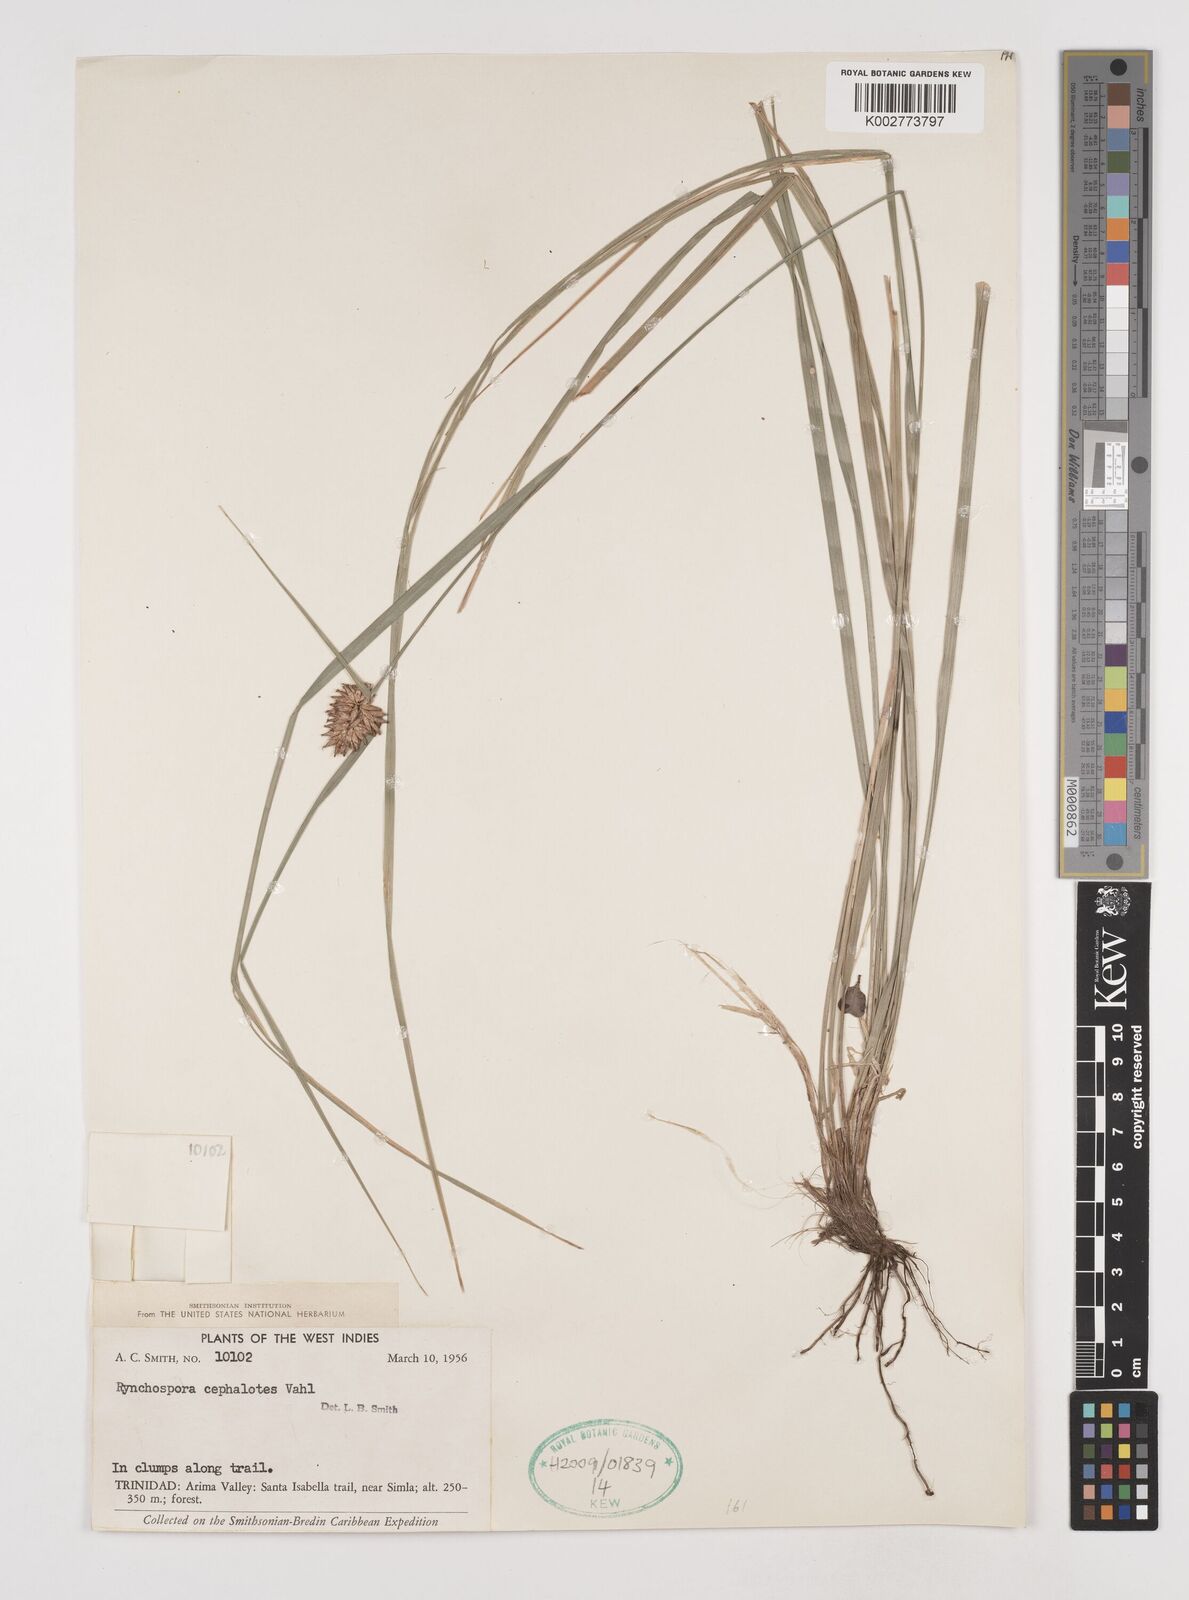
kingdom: Plantae
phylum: Tracheophyta
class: Liliopsida
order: Poales
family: Cyperaceae
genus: Rhynchospora
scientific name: Rhynchospora cephalotes
